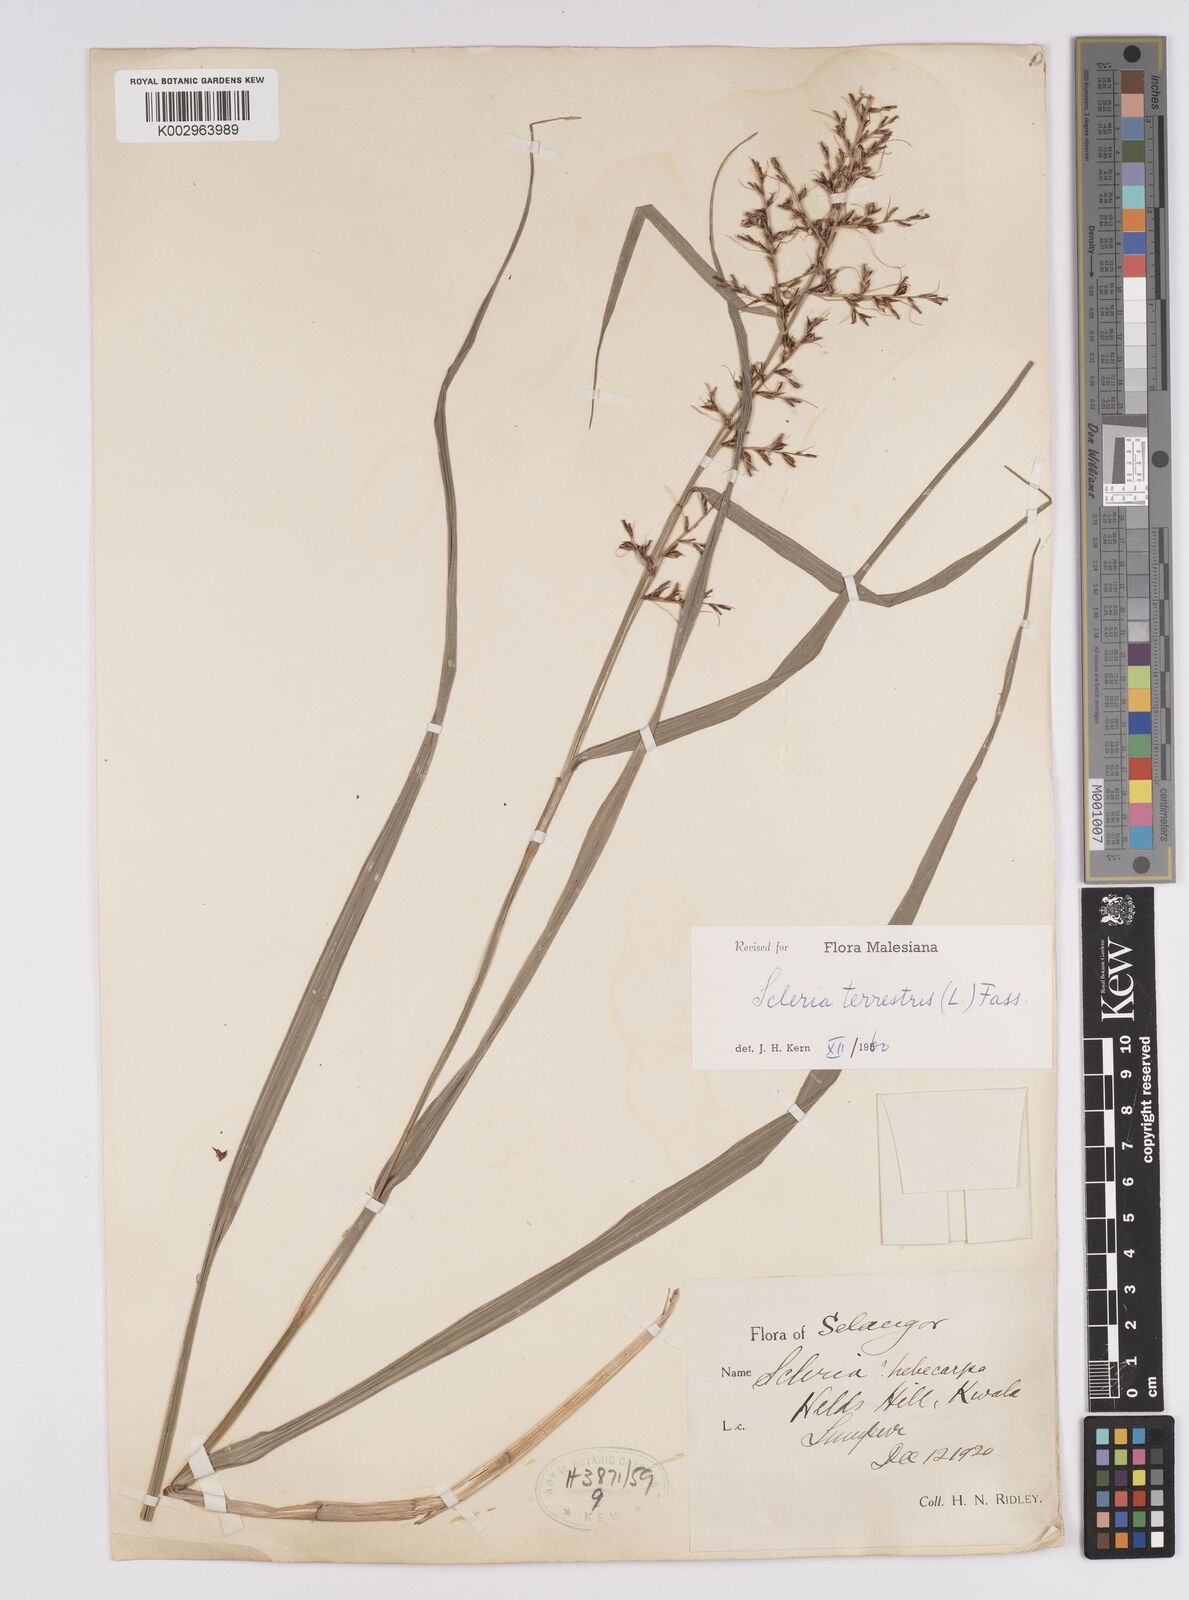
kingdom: Plantae
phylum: Tracheophyta
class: Liliopsida
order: Poales
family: Cyperaceae
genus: Scleria
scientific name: Scleria terrestris
